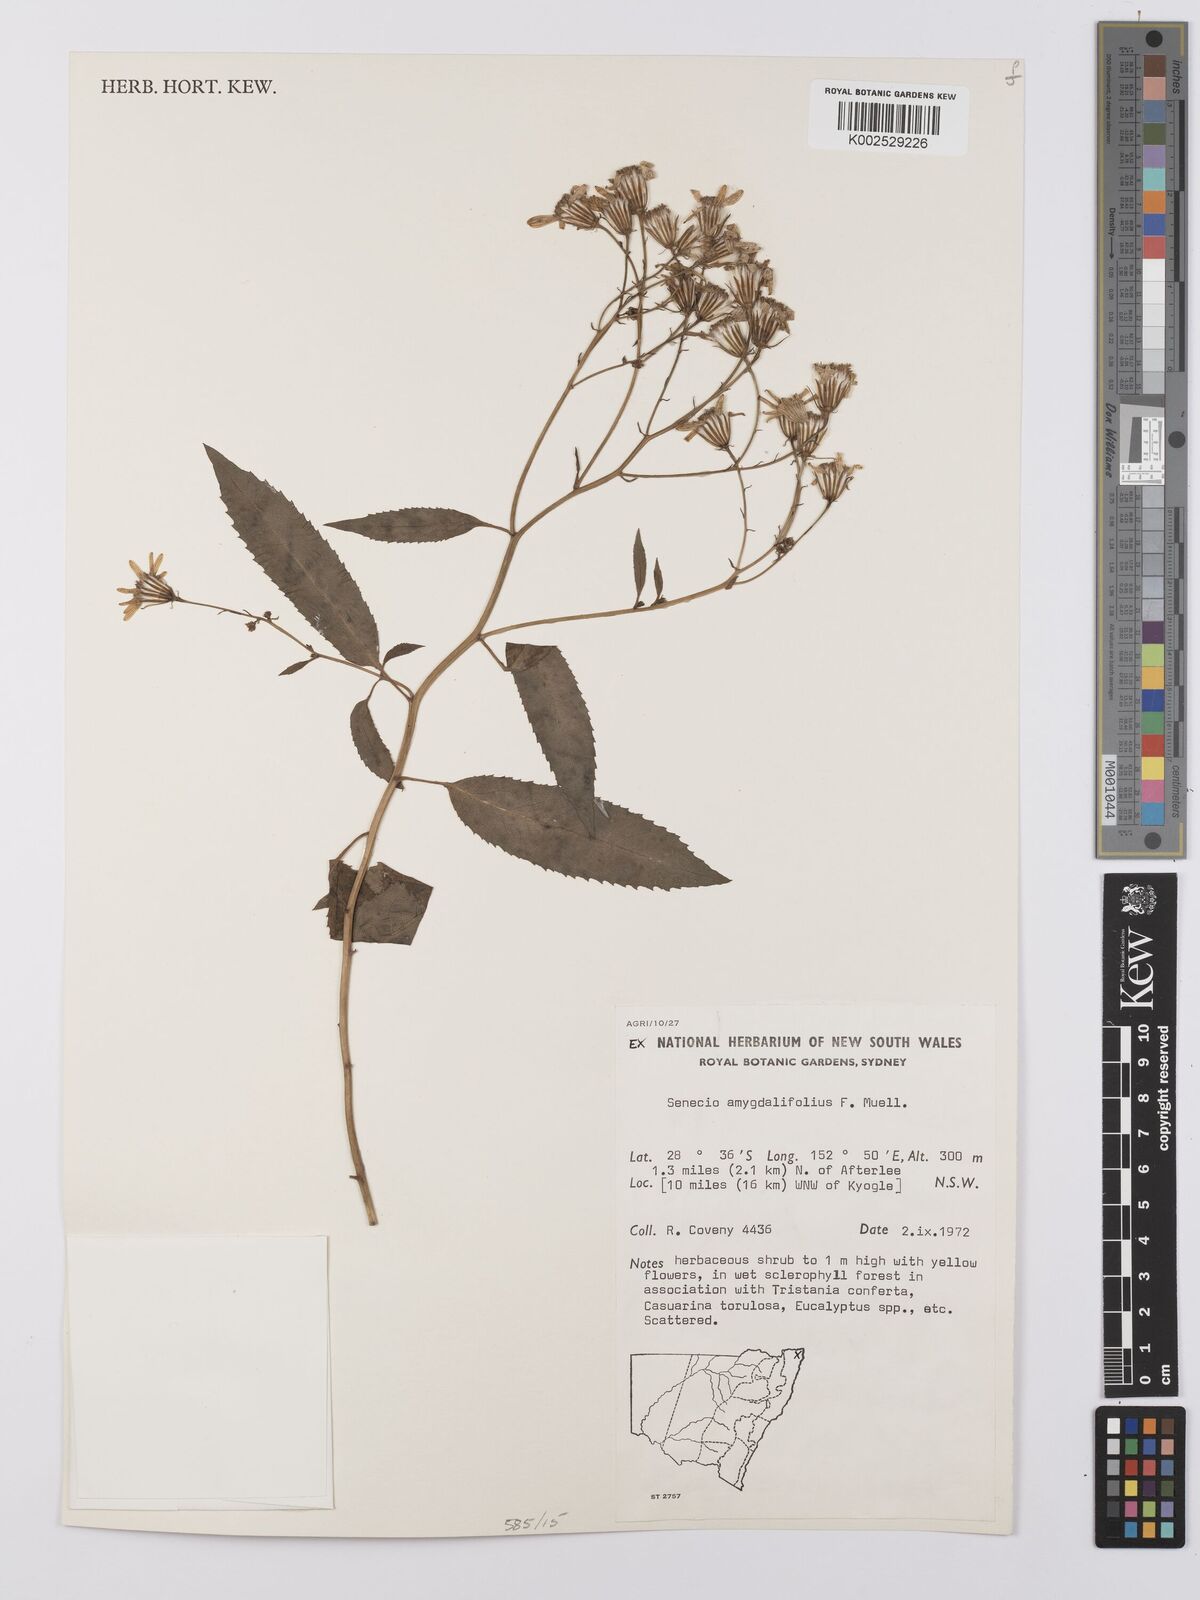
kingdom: Plantae
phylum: Tracheophyta
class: Magnoliopsida
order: Asterales
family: Asteraceae
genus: Lordhowea
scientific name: Lordhowea amygdalifolia
